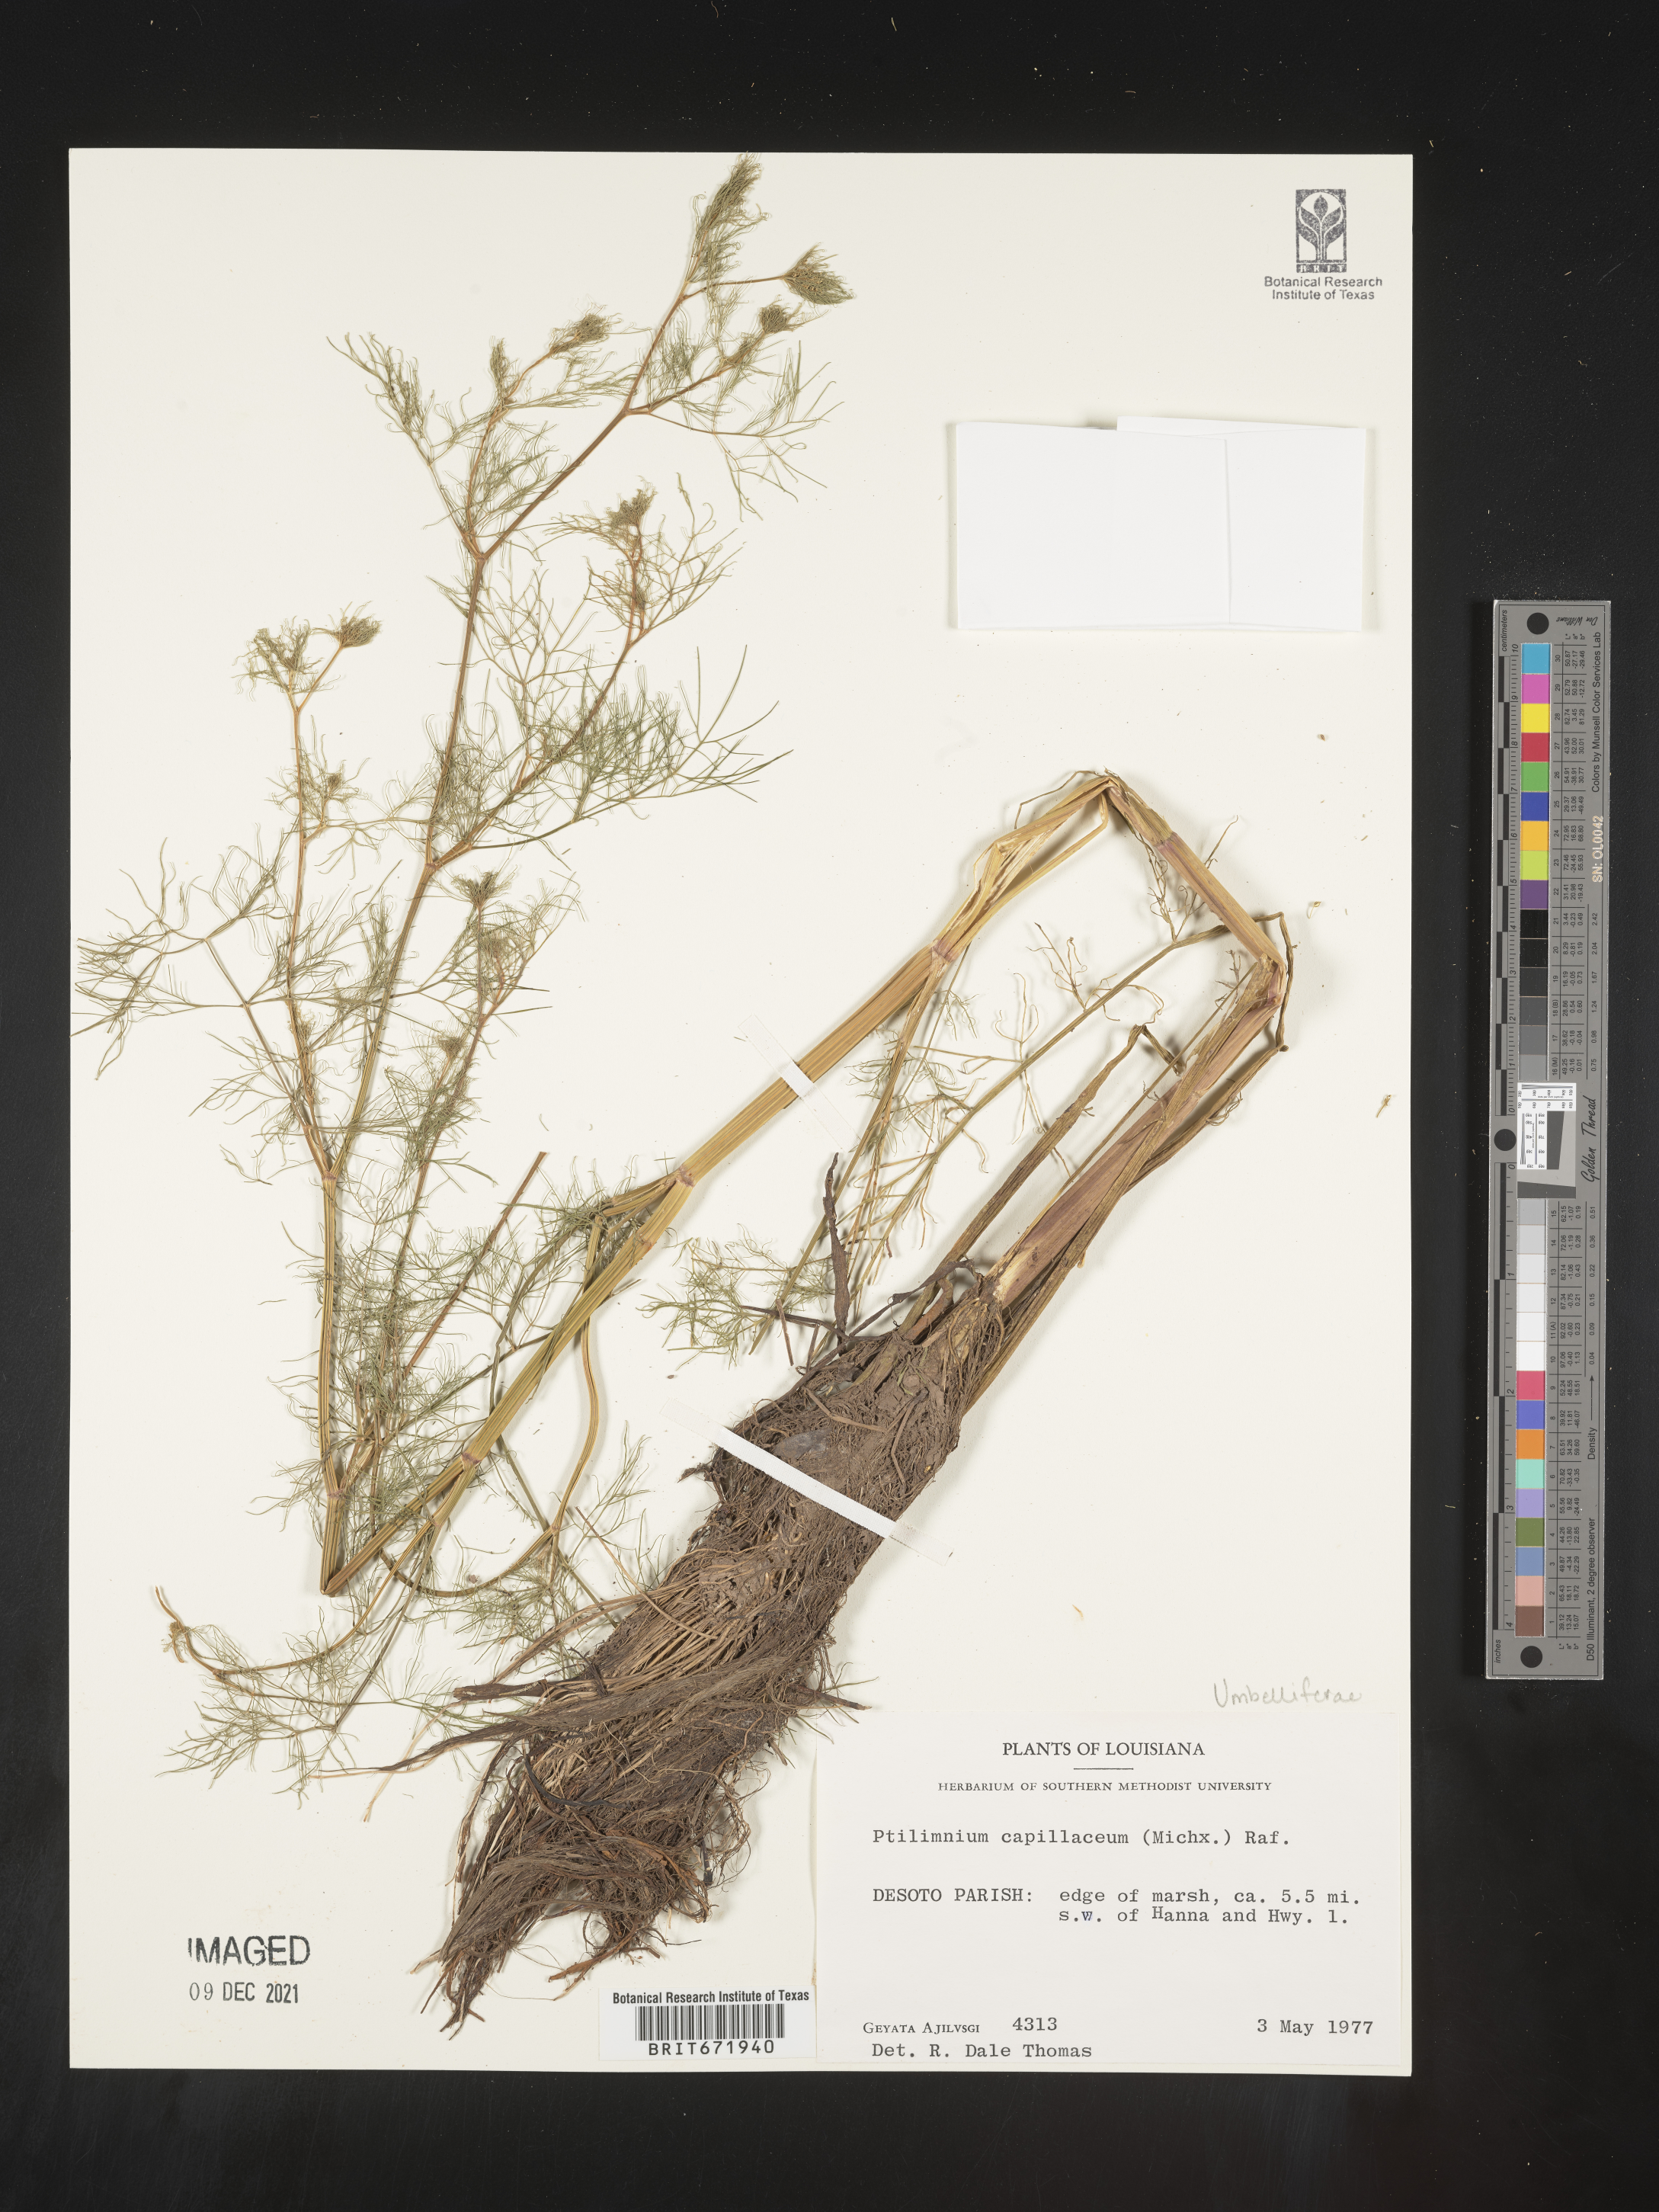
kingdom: Plantae
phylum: Tracheophyta
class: Magnoliopsida
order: Apiales
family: Apiaceae
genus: Ptilimnium
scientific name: Ptilimnium capillaceum
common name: Herbwilliam
